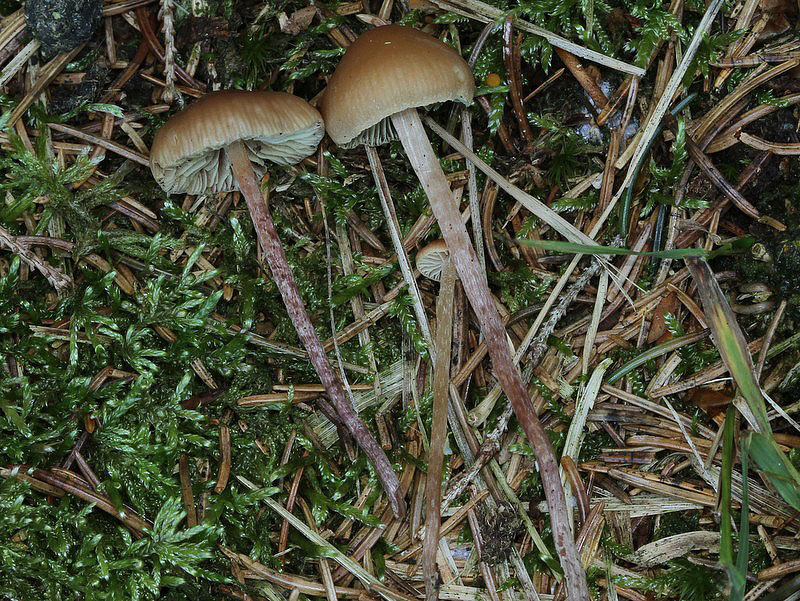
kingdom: Fungi
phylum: Basidiomycota
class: Agaricomycetes
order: Agaricales
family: Strophariaceae
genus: Bogbodia
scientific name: Bogbodia uda
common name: tørve-svovlhat
